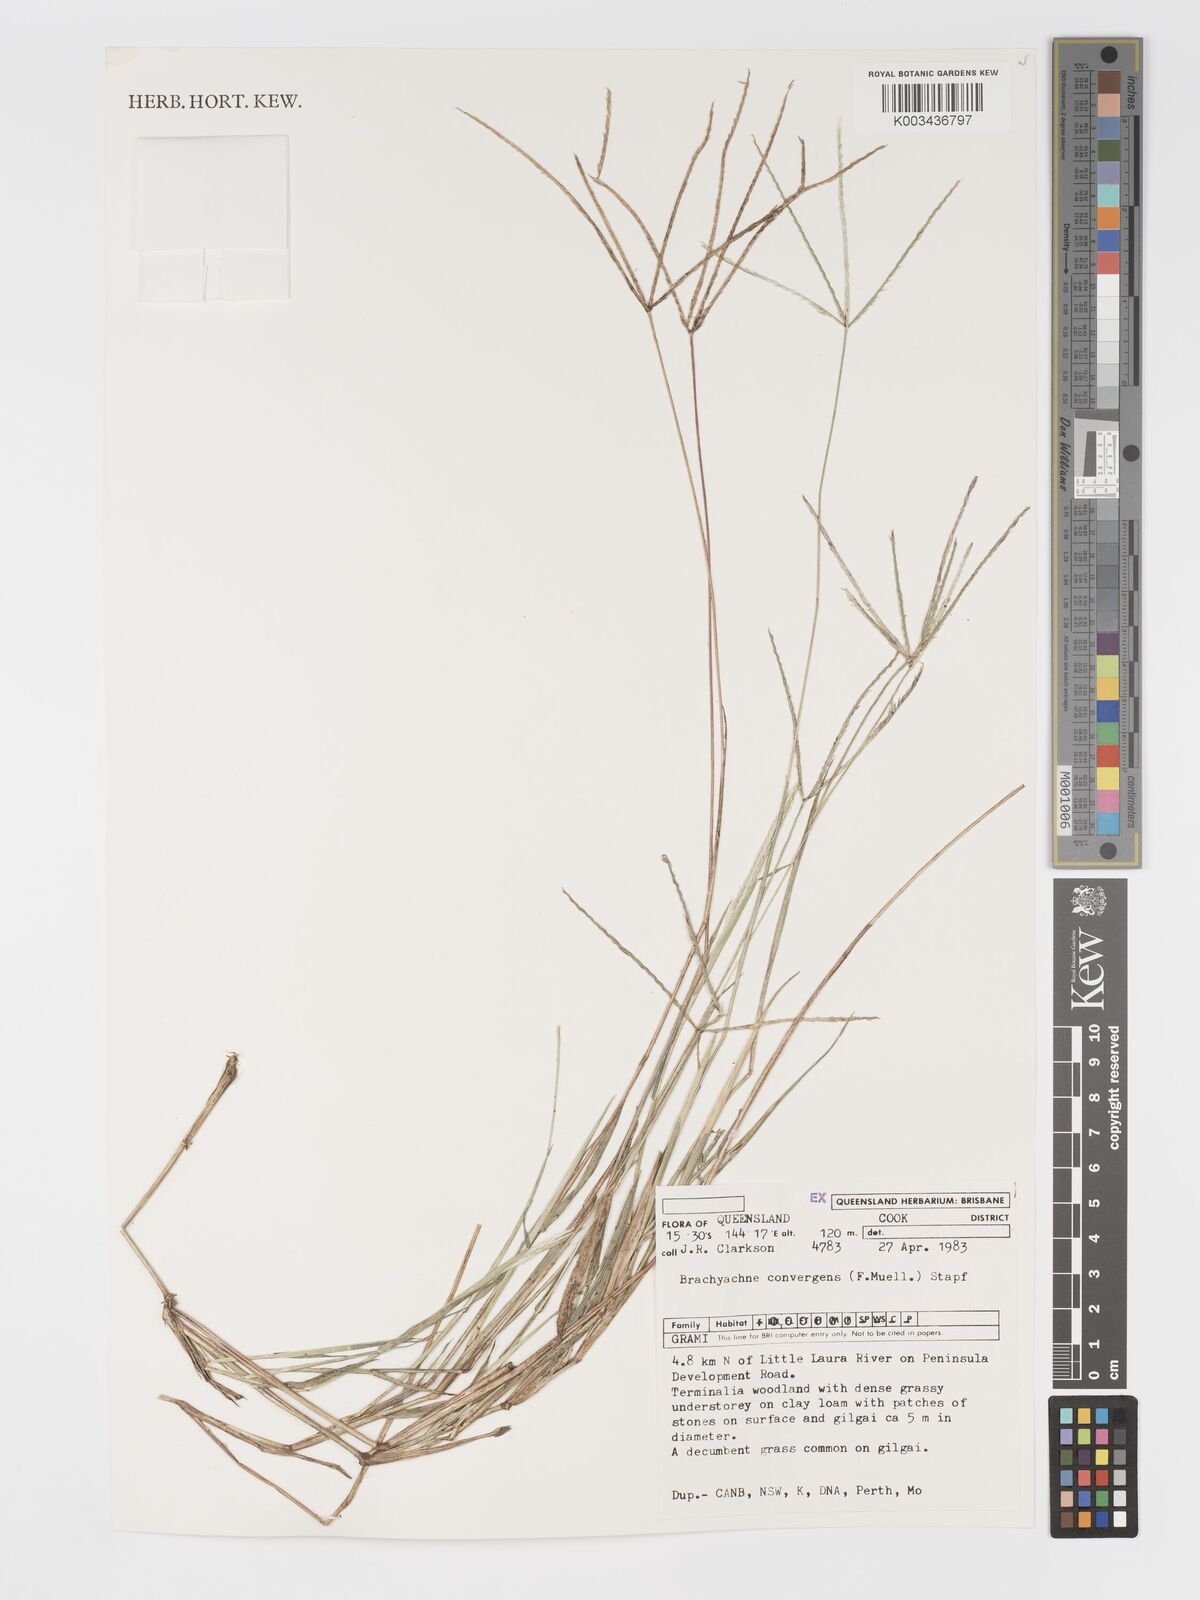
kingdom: Plantae
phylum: Tracheophyta
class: Liliopsida
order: Poales
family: Poaceae
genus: Cynodon
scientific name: Cynodon convergens
